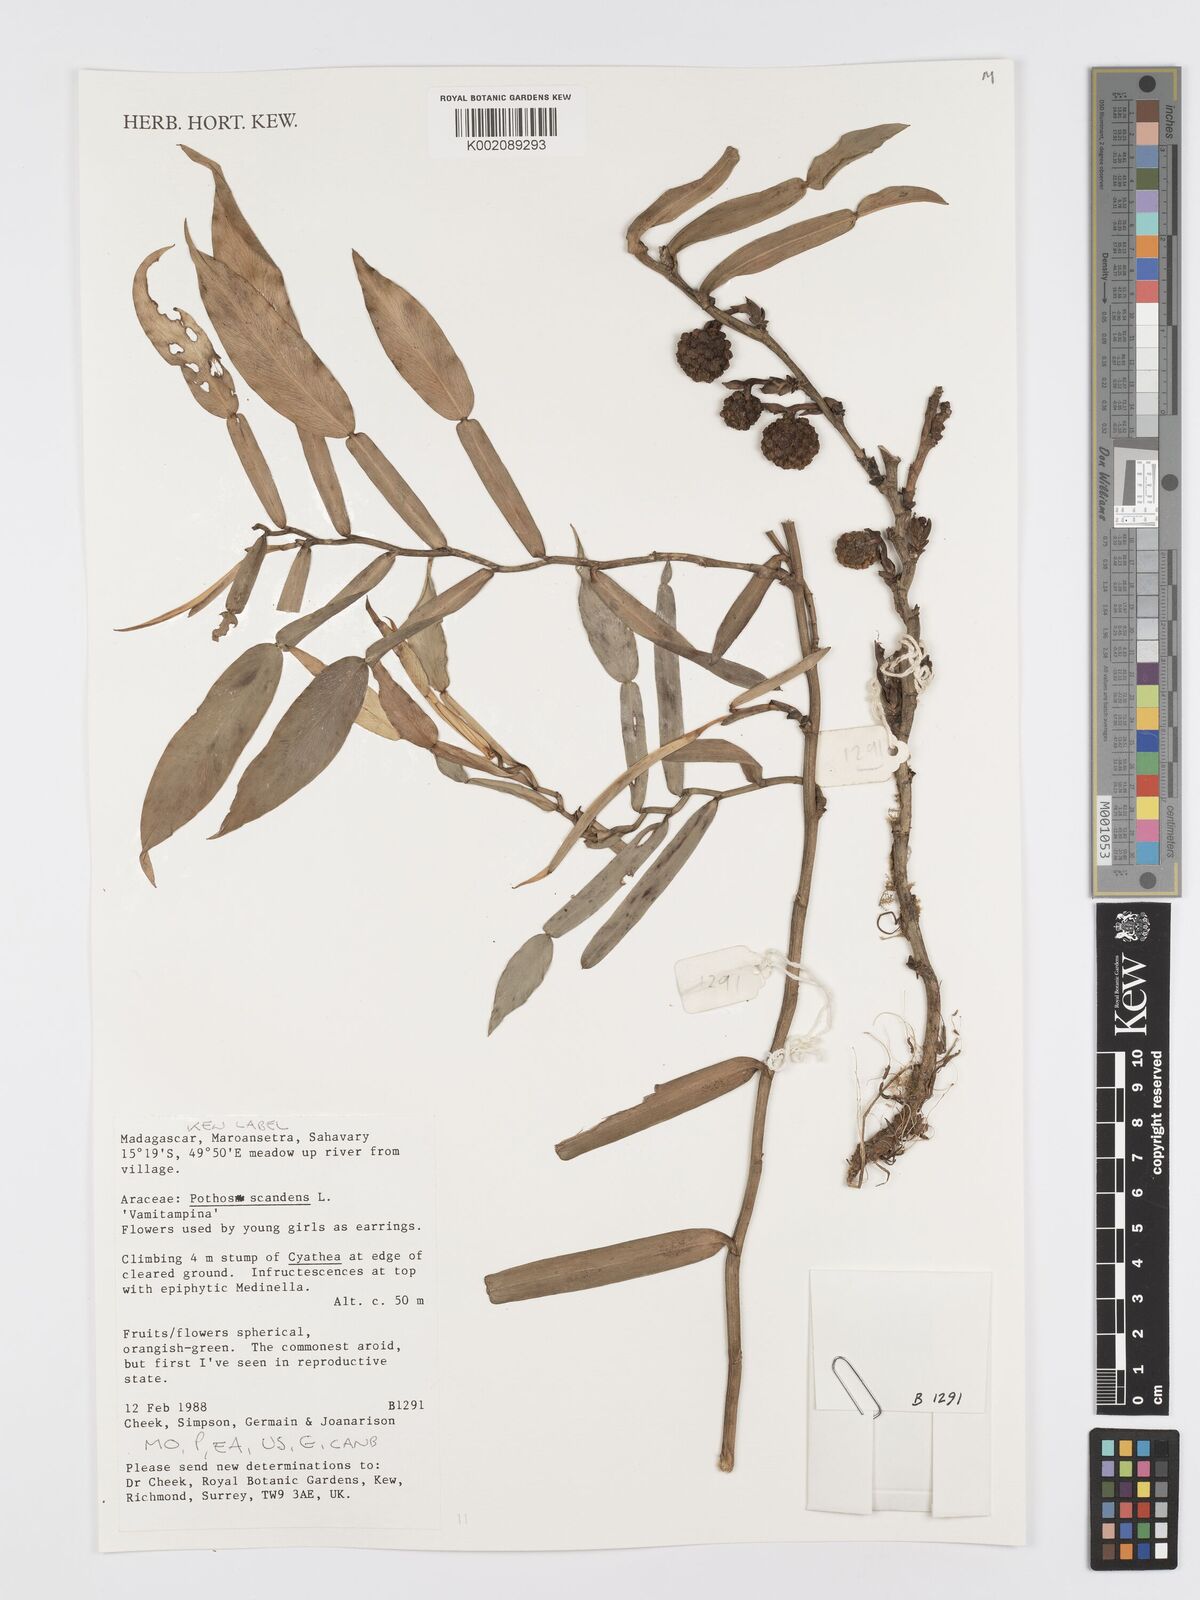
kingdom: Plantae
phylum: Tracheophyta
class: Liliopsida
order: Alismatales
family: Araceae
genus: Pothos
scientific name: Pothos scandens
